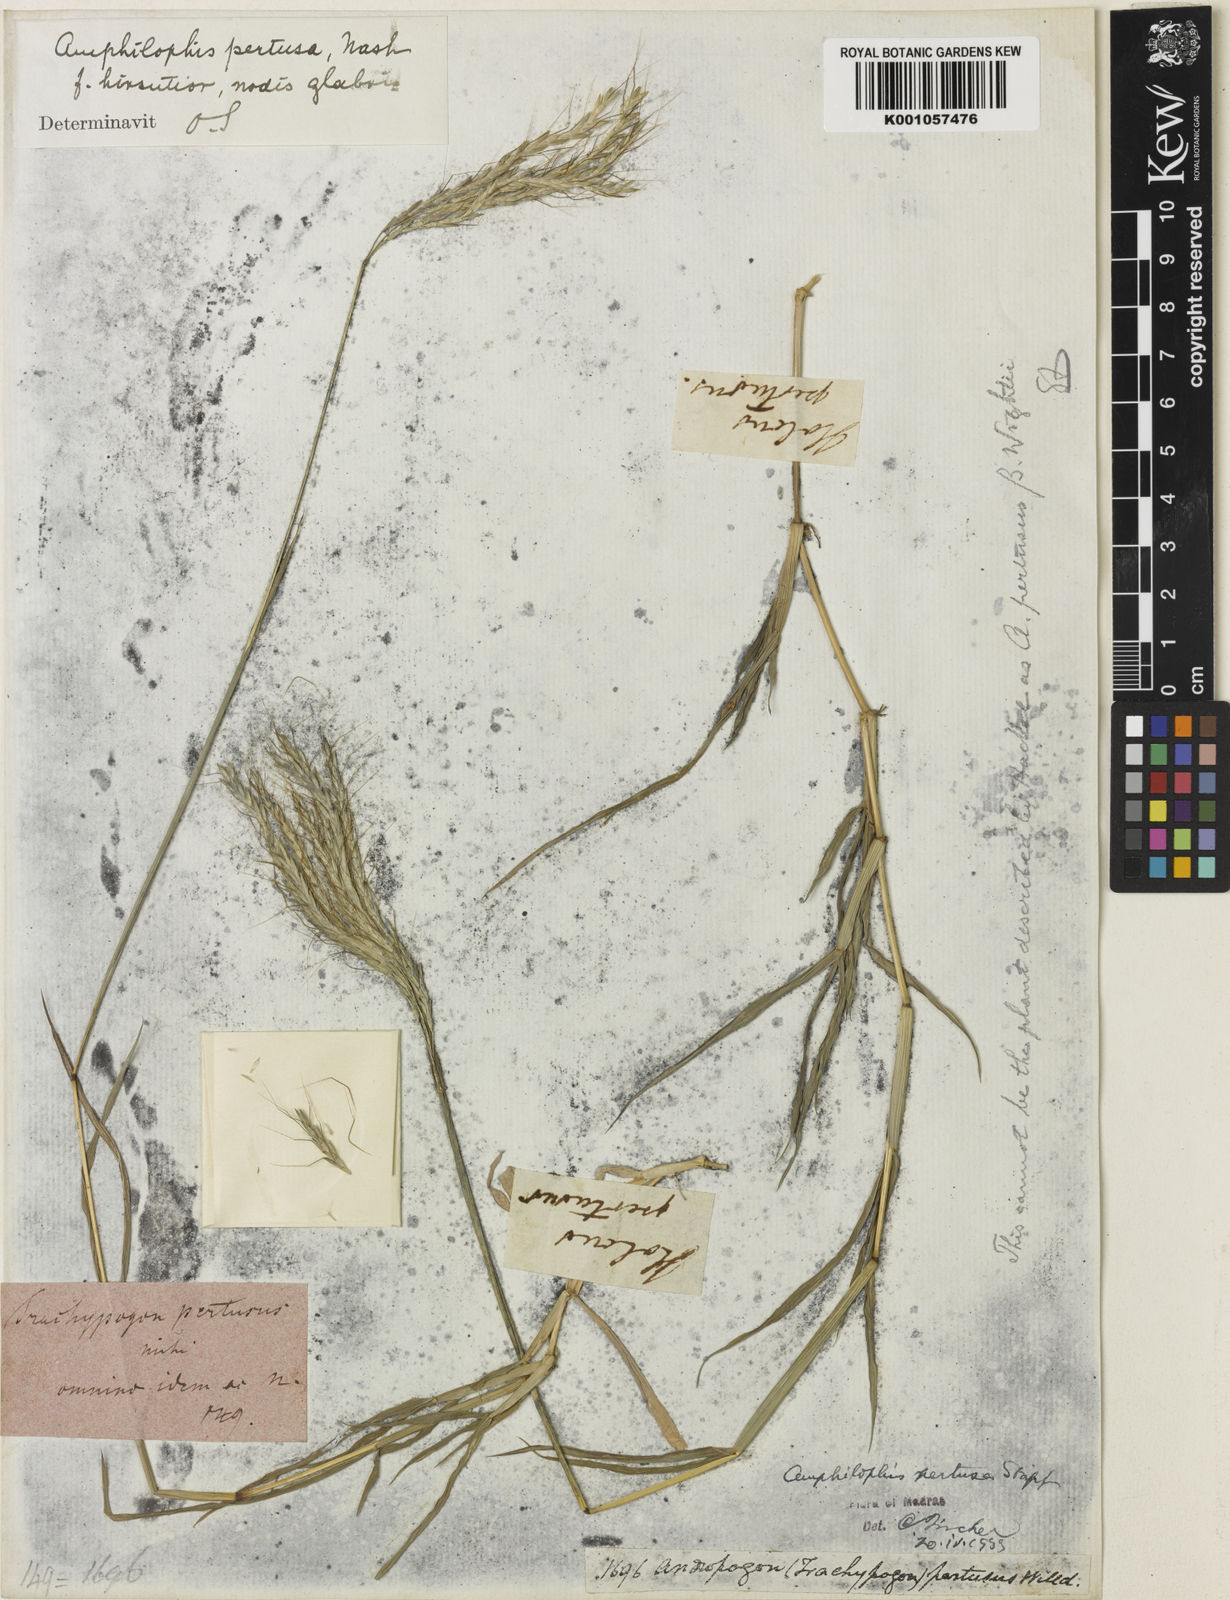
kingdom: Plantae
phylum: Tracheophyta
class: Liliopsida
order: Poales
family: Poaceae
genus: Bothriochloa
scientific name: Bothriochloa pertusa
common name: Pitted beardgrass
